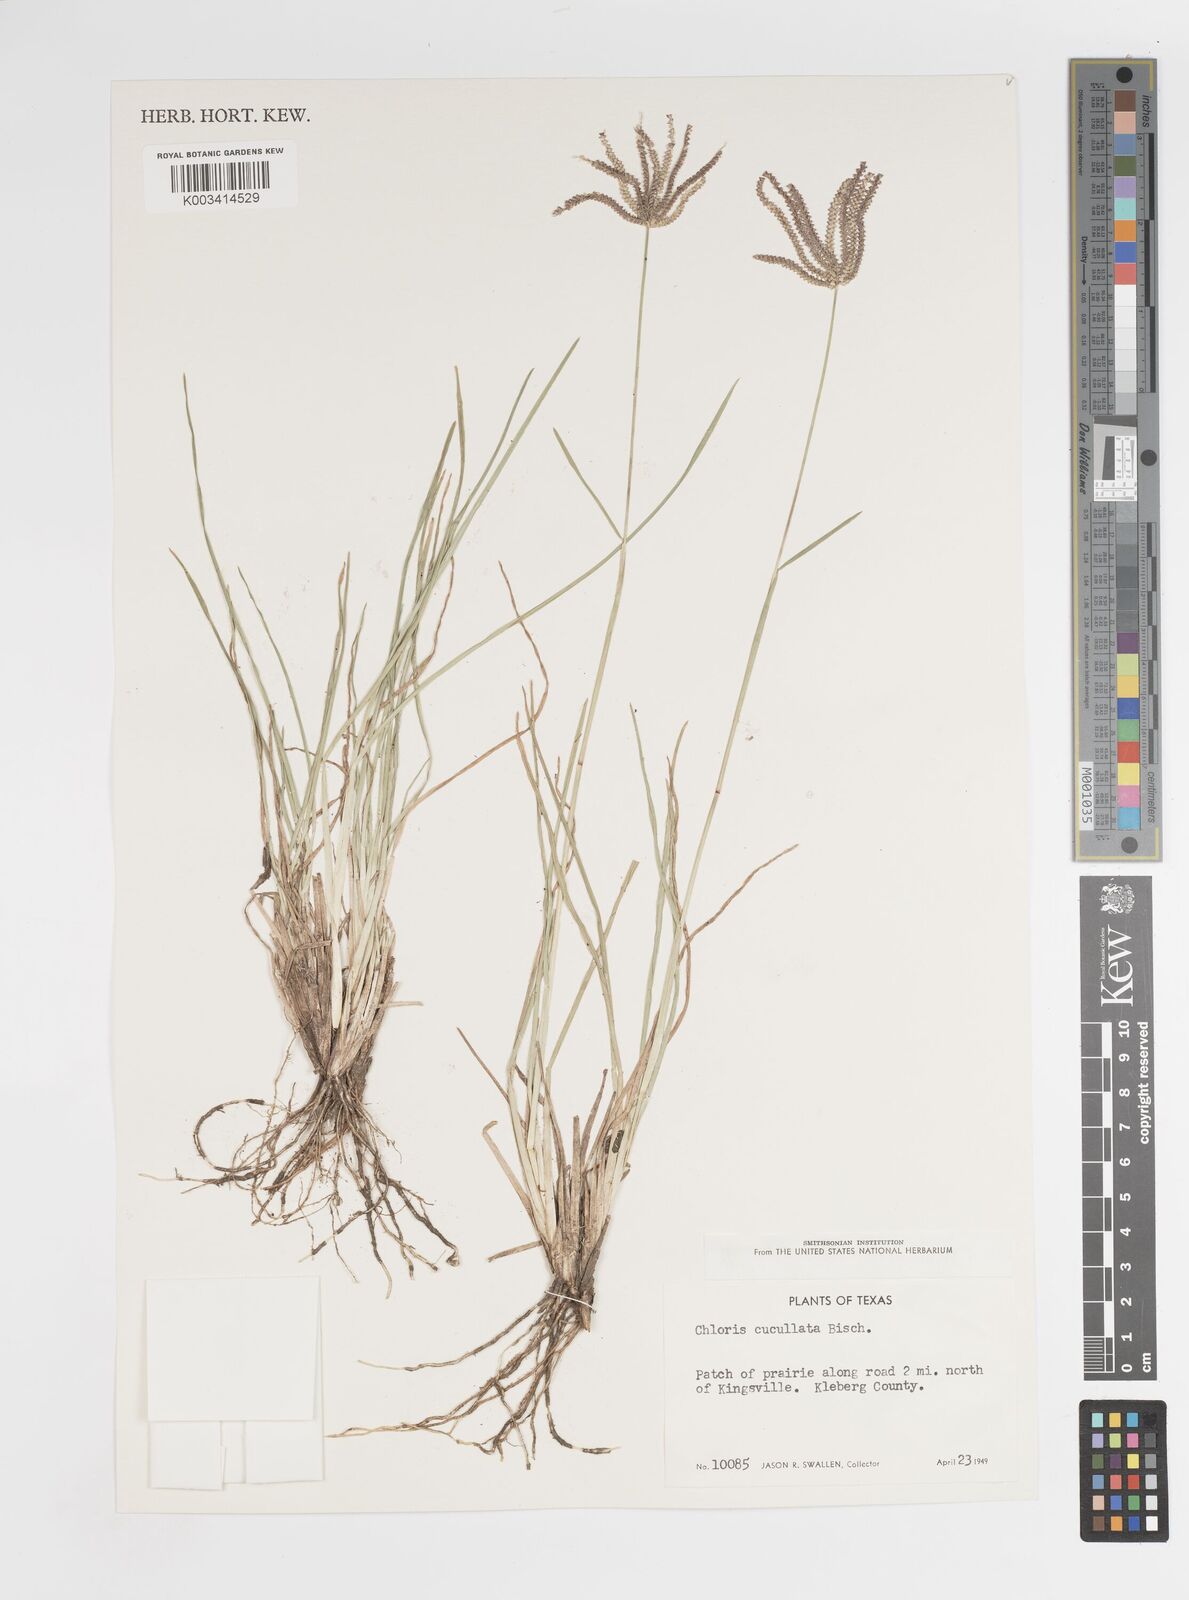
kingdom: Plantae
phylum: Tracheophyta
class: Liliopsida
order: Poales
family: Poaceae
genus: Chloris
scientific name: Chloris cucullata
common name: Hooded windmill grass
